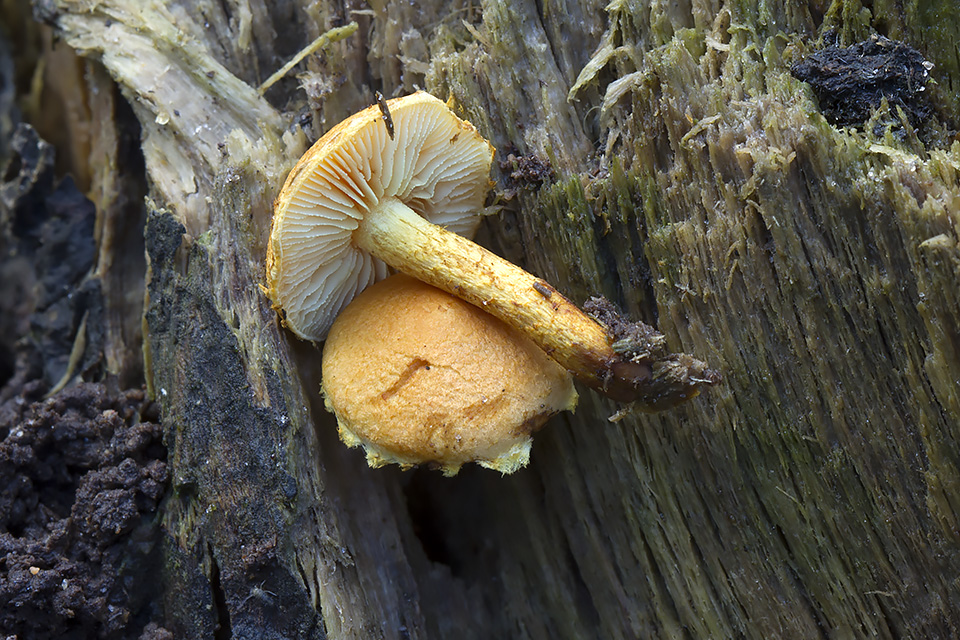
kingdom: Fungi
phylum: Basidiomycota
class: Agaricomycetes
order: Agaricales
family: Strophariaceae
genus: Pholiota
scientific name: Pholiota tuberculosa
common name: finskællet skælhat
